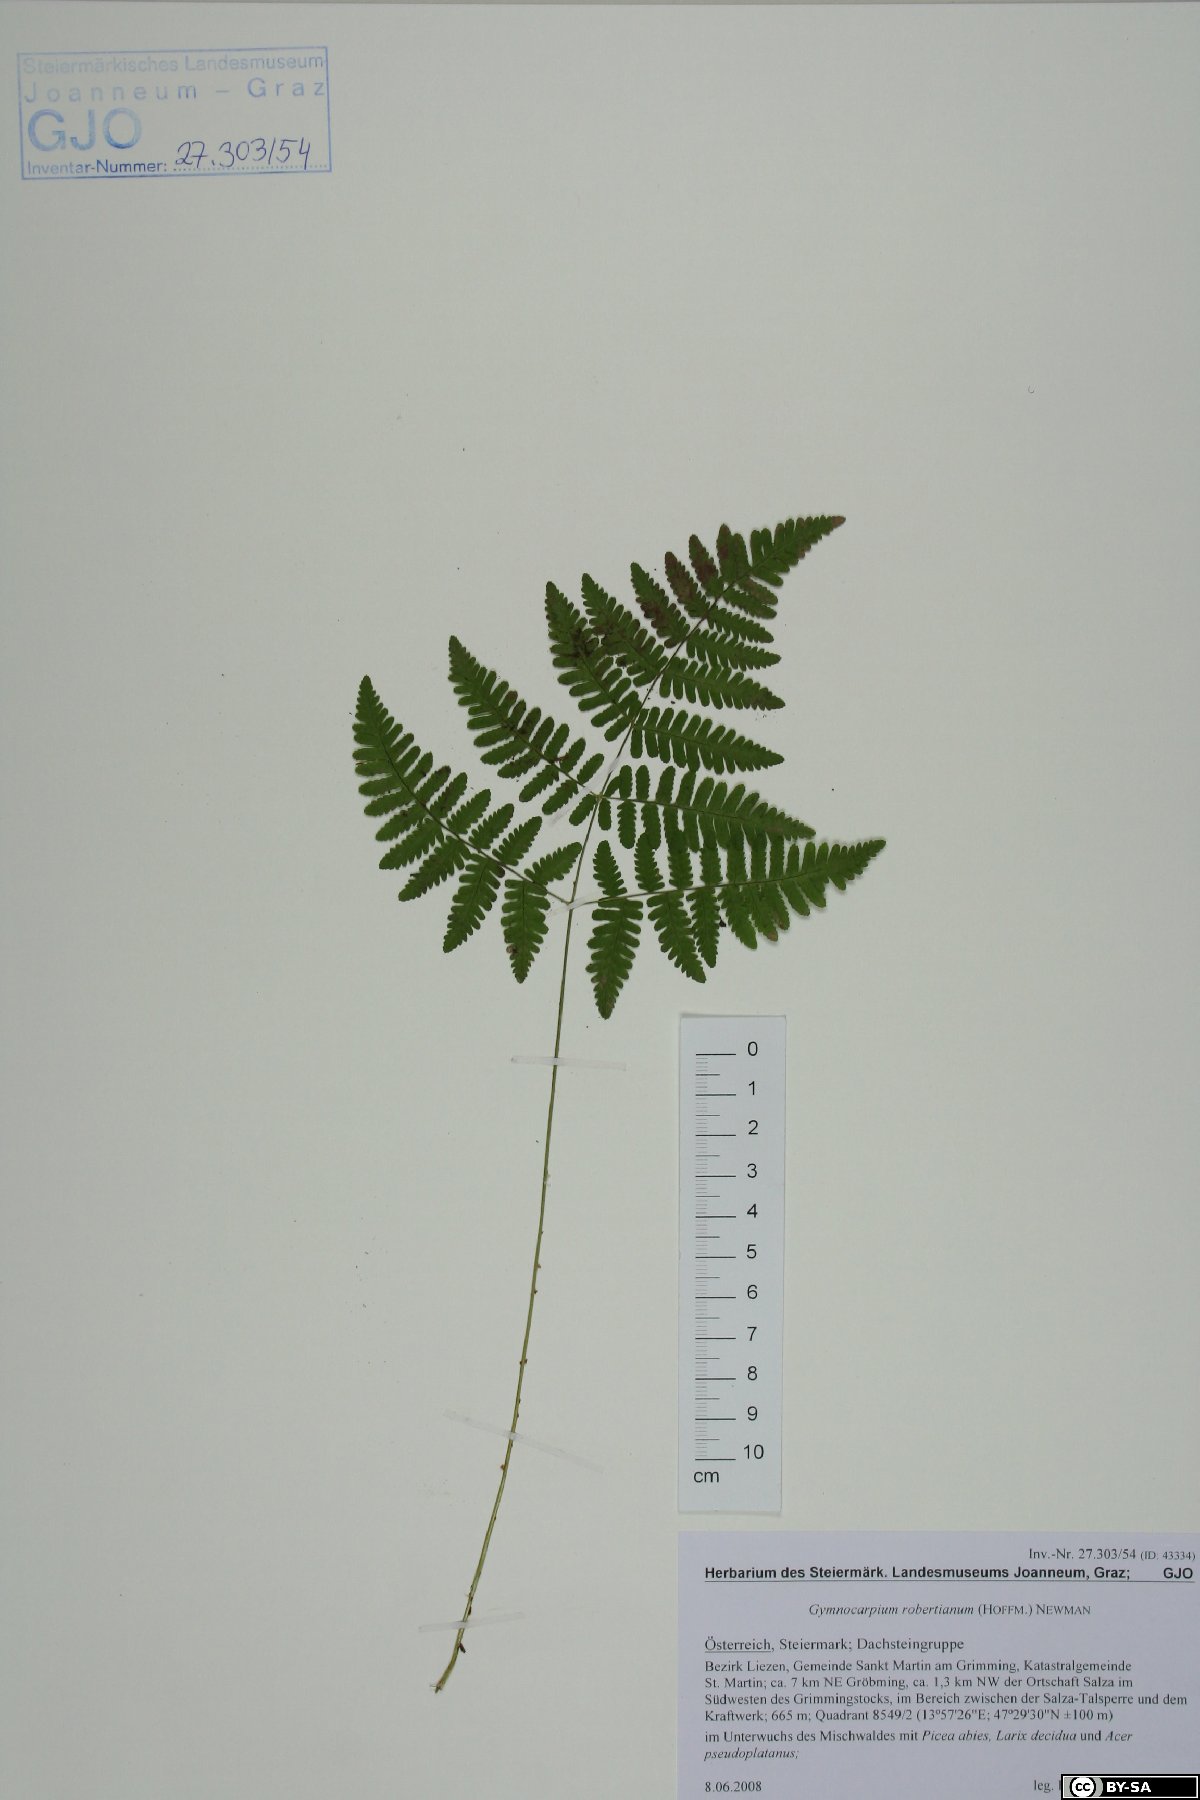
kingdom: Plantae
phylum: Tracheophyta
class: Polypodiopsida
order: Polypodiales
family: Cystopteridaceae
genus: Gymnocarpium
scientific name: Gymnocarpium robertianum
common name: Limestone fern
